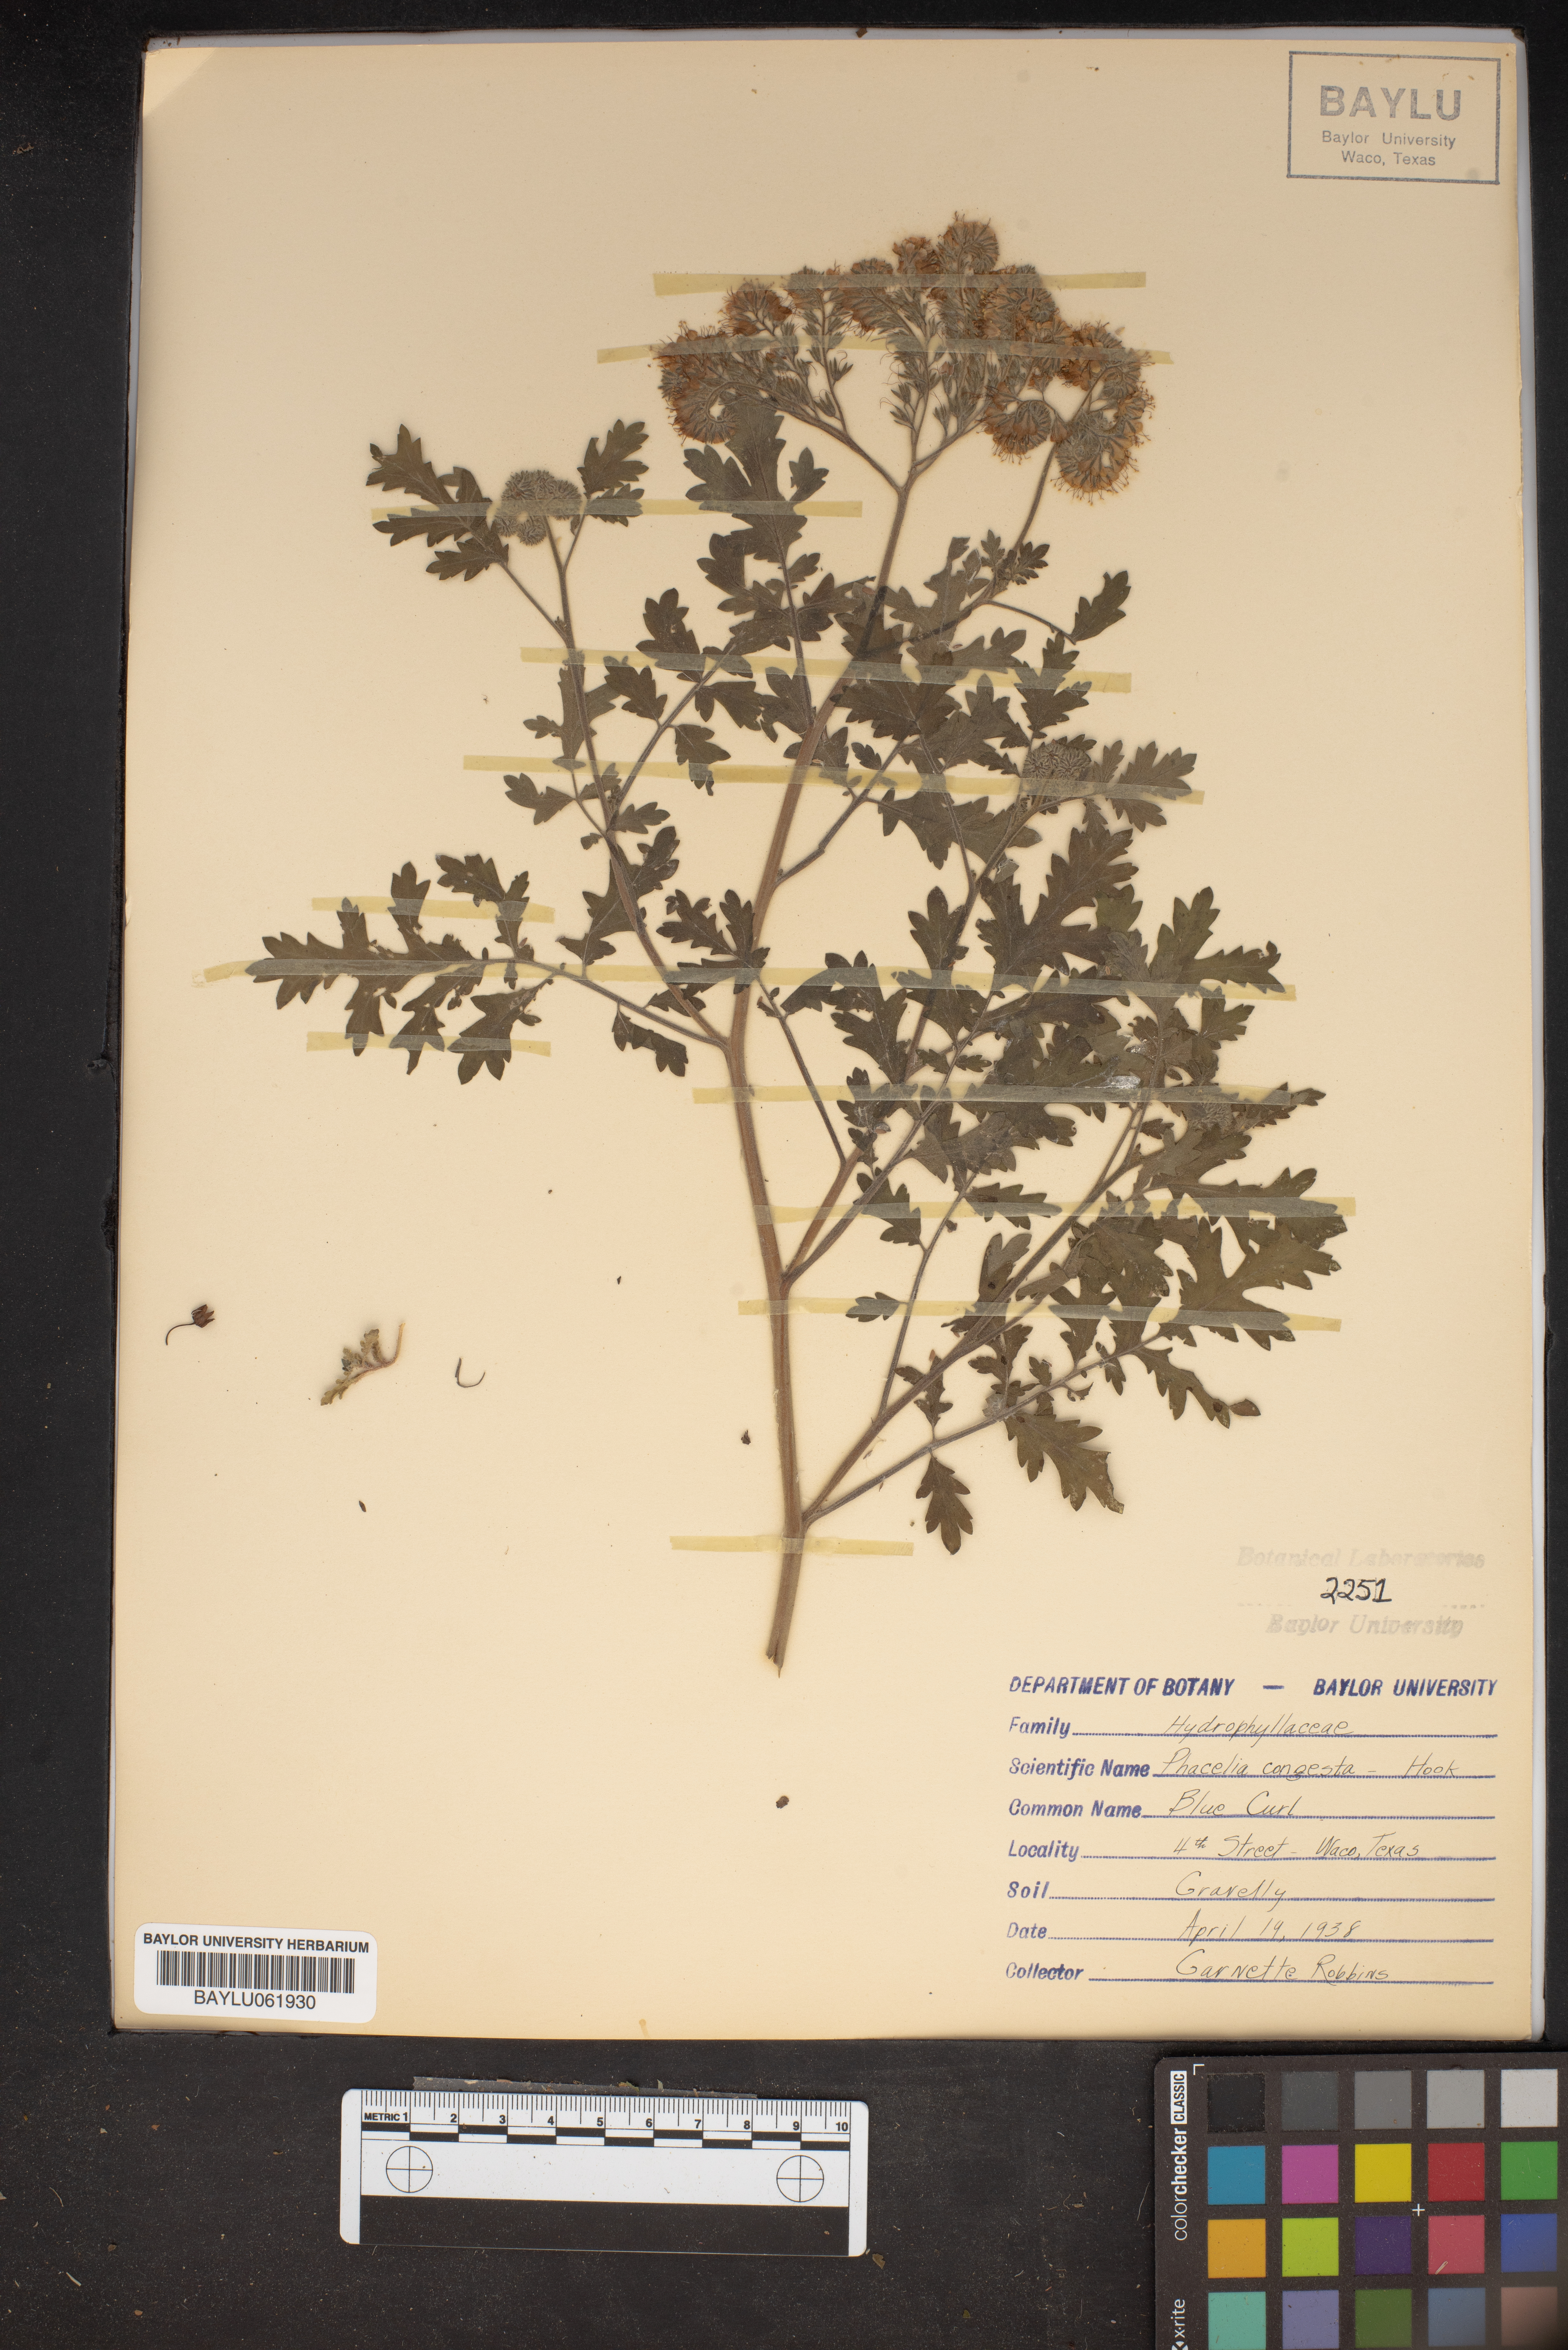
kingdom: Plantae
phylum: Tracheophyta
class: Magnoliopsida
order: Boraginales
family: Hydrophyllaceae
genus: Phacelia
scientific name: Phacelia congesta
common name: Blue curls
